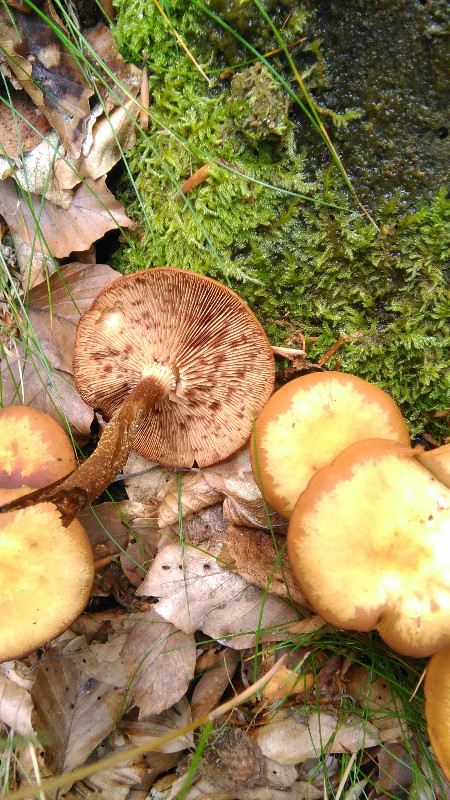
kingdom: Fungi
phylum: Basidiomycota
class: Agaricomycetes
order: Agaricales
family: Strophariaceae
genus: Kuehneromyces
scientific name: Kuehneromyces mutabilis
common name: foranderlig skælhat
